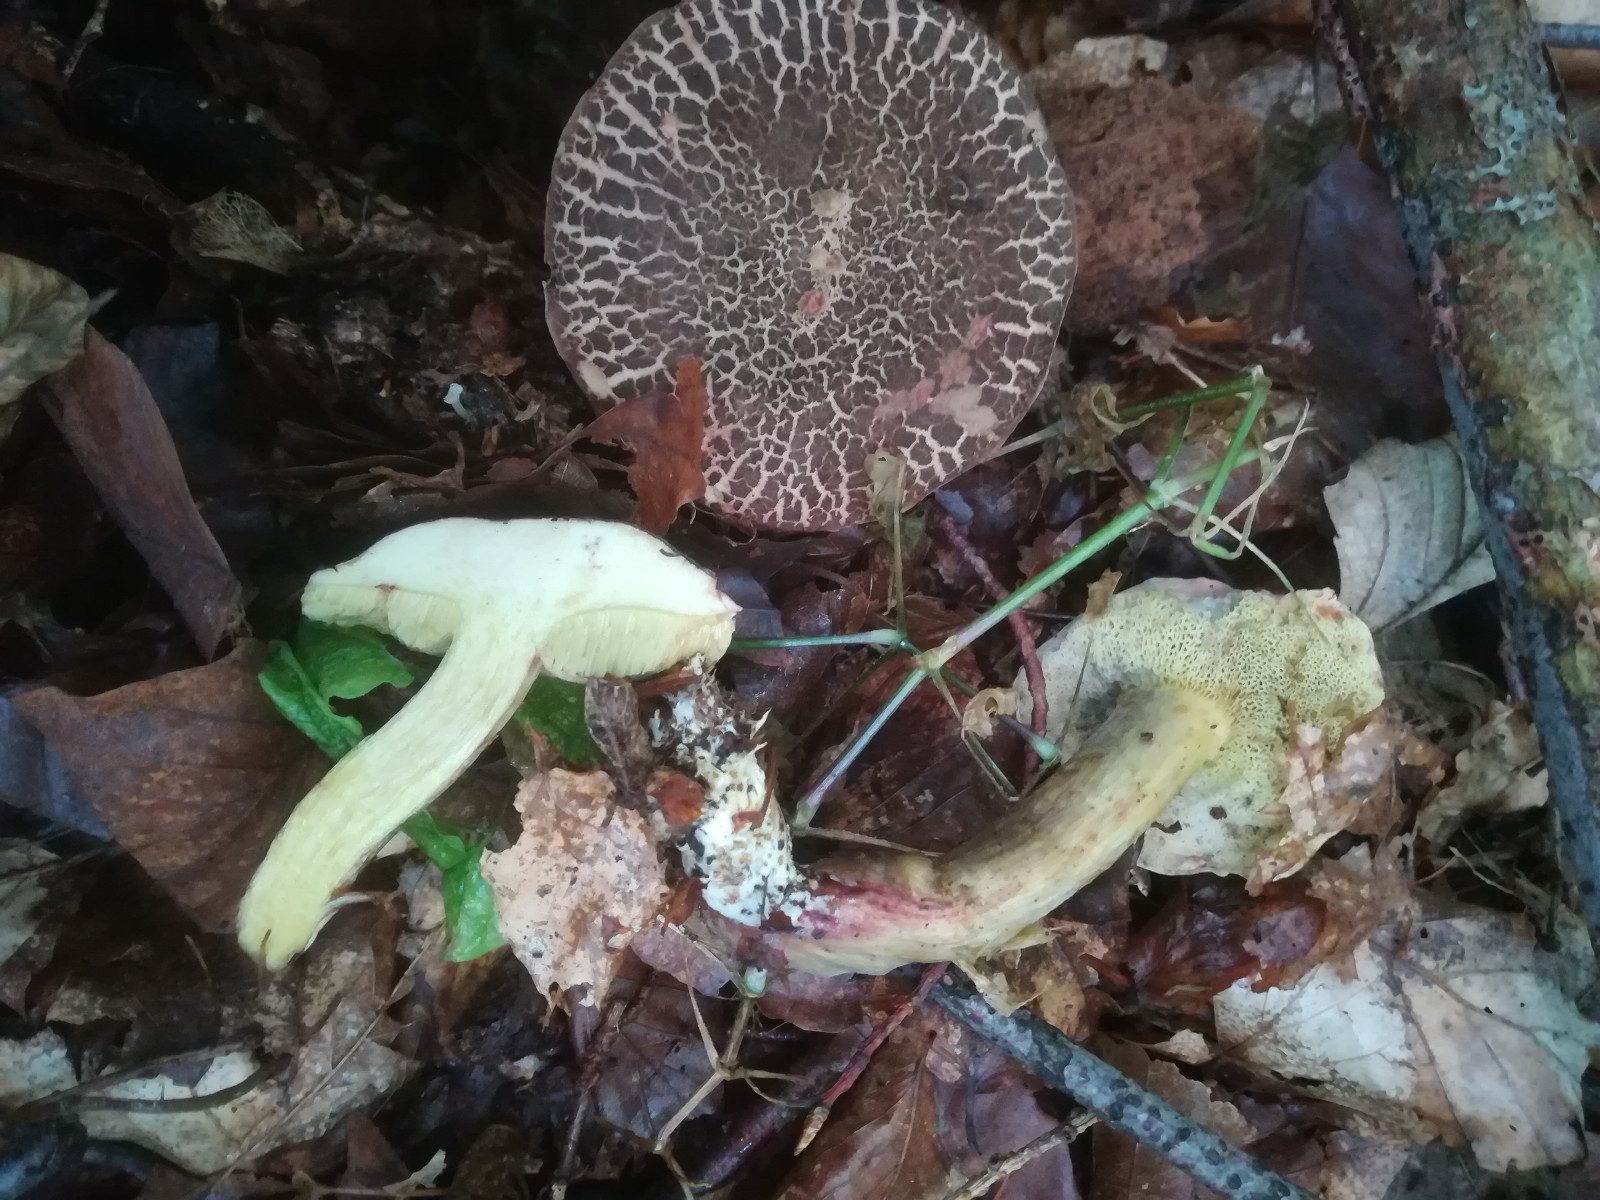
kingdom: Fungi
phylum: Basidiomycota
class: Agaricomycetes
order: Boletales
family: Boletaceae
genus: Xerocomellus
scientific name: Xerocomellus cisalpinus
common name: finsprukken rørhat
